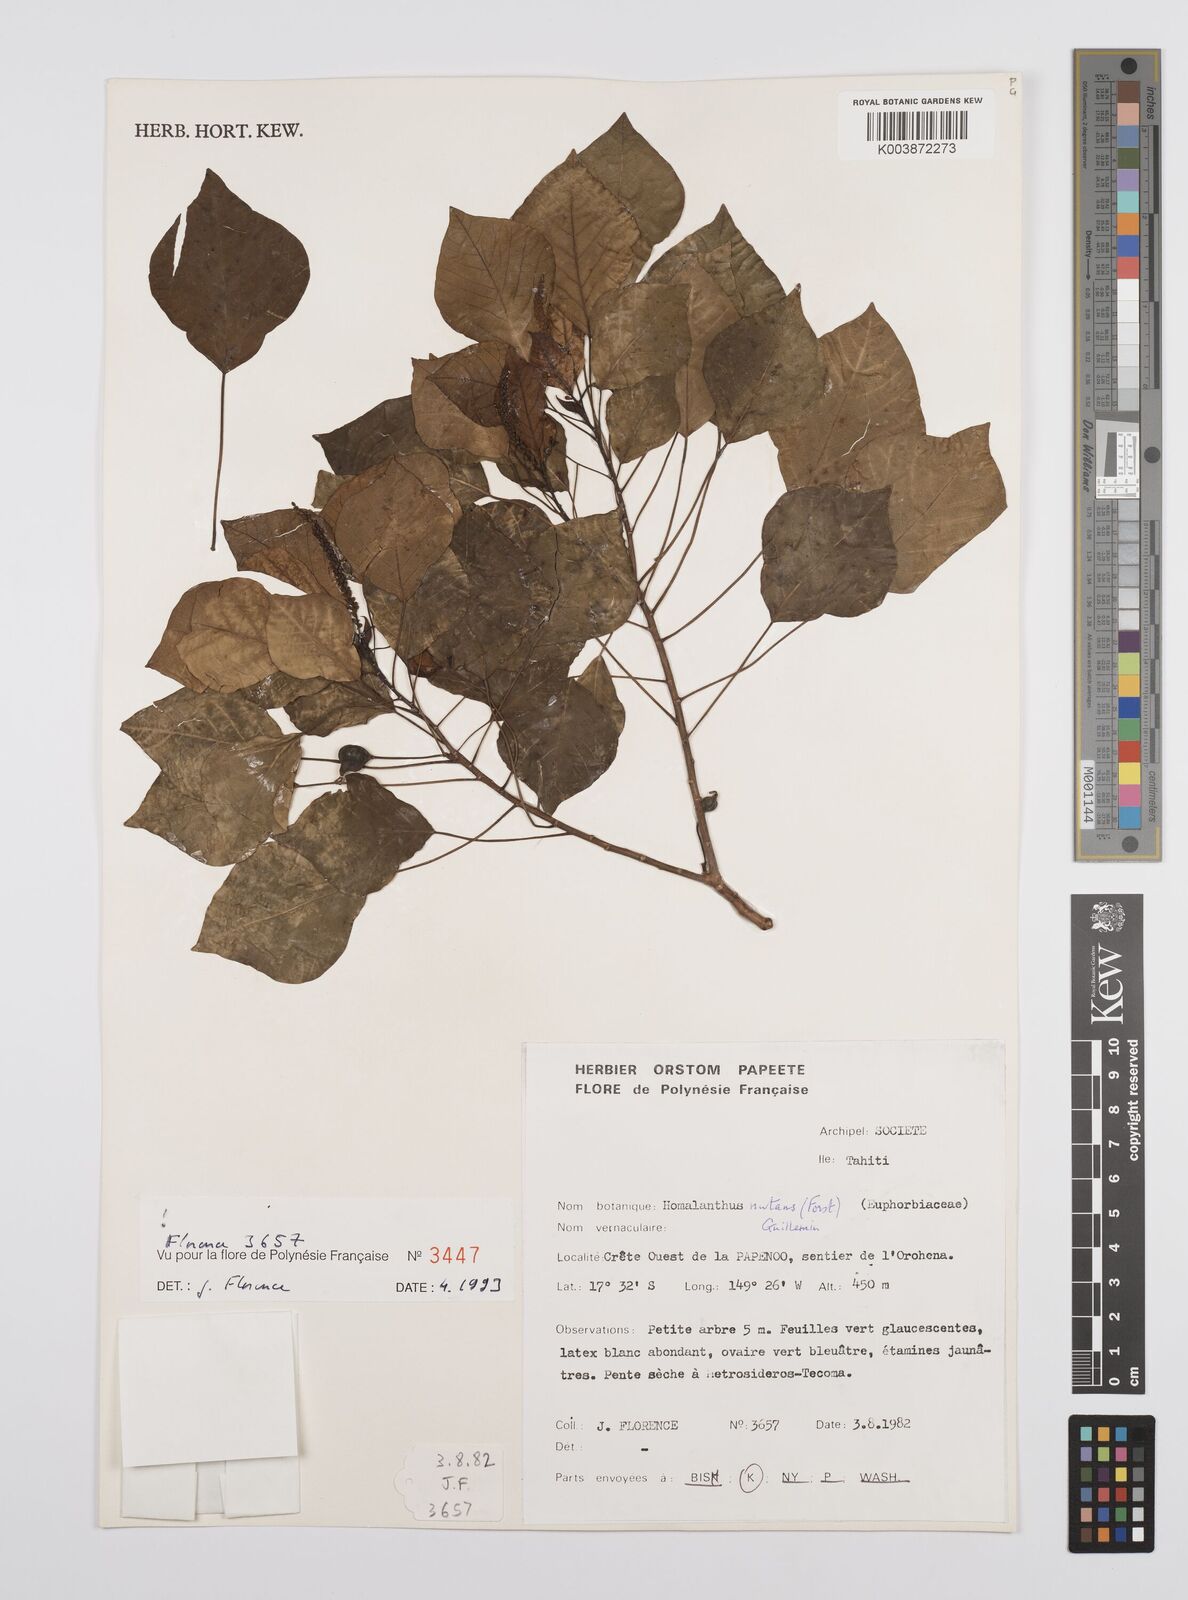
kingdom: Plantae
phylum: Tracheophyta
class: Magnoliopsida
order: Malpighiales
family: Euphorbiaceae
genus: Homalanthus
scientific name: Homalanthus nutans
